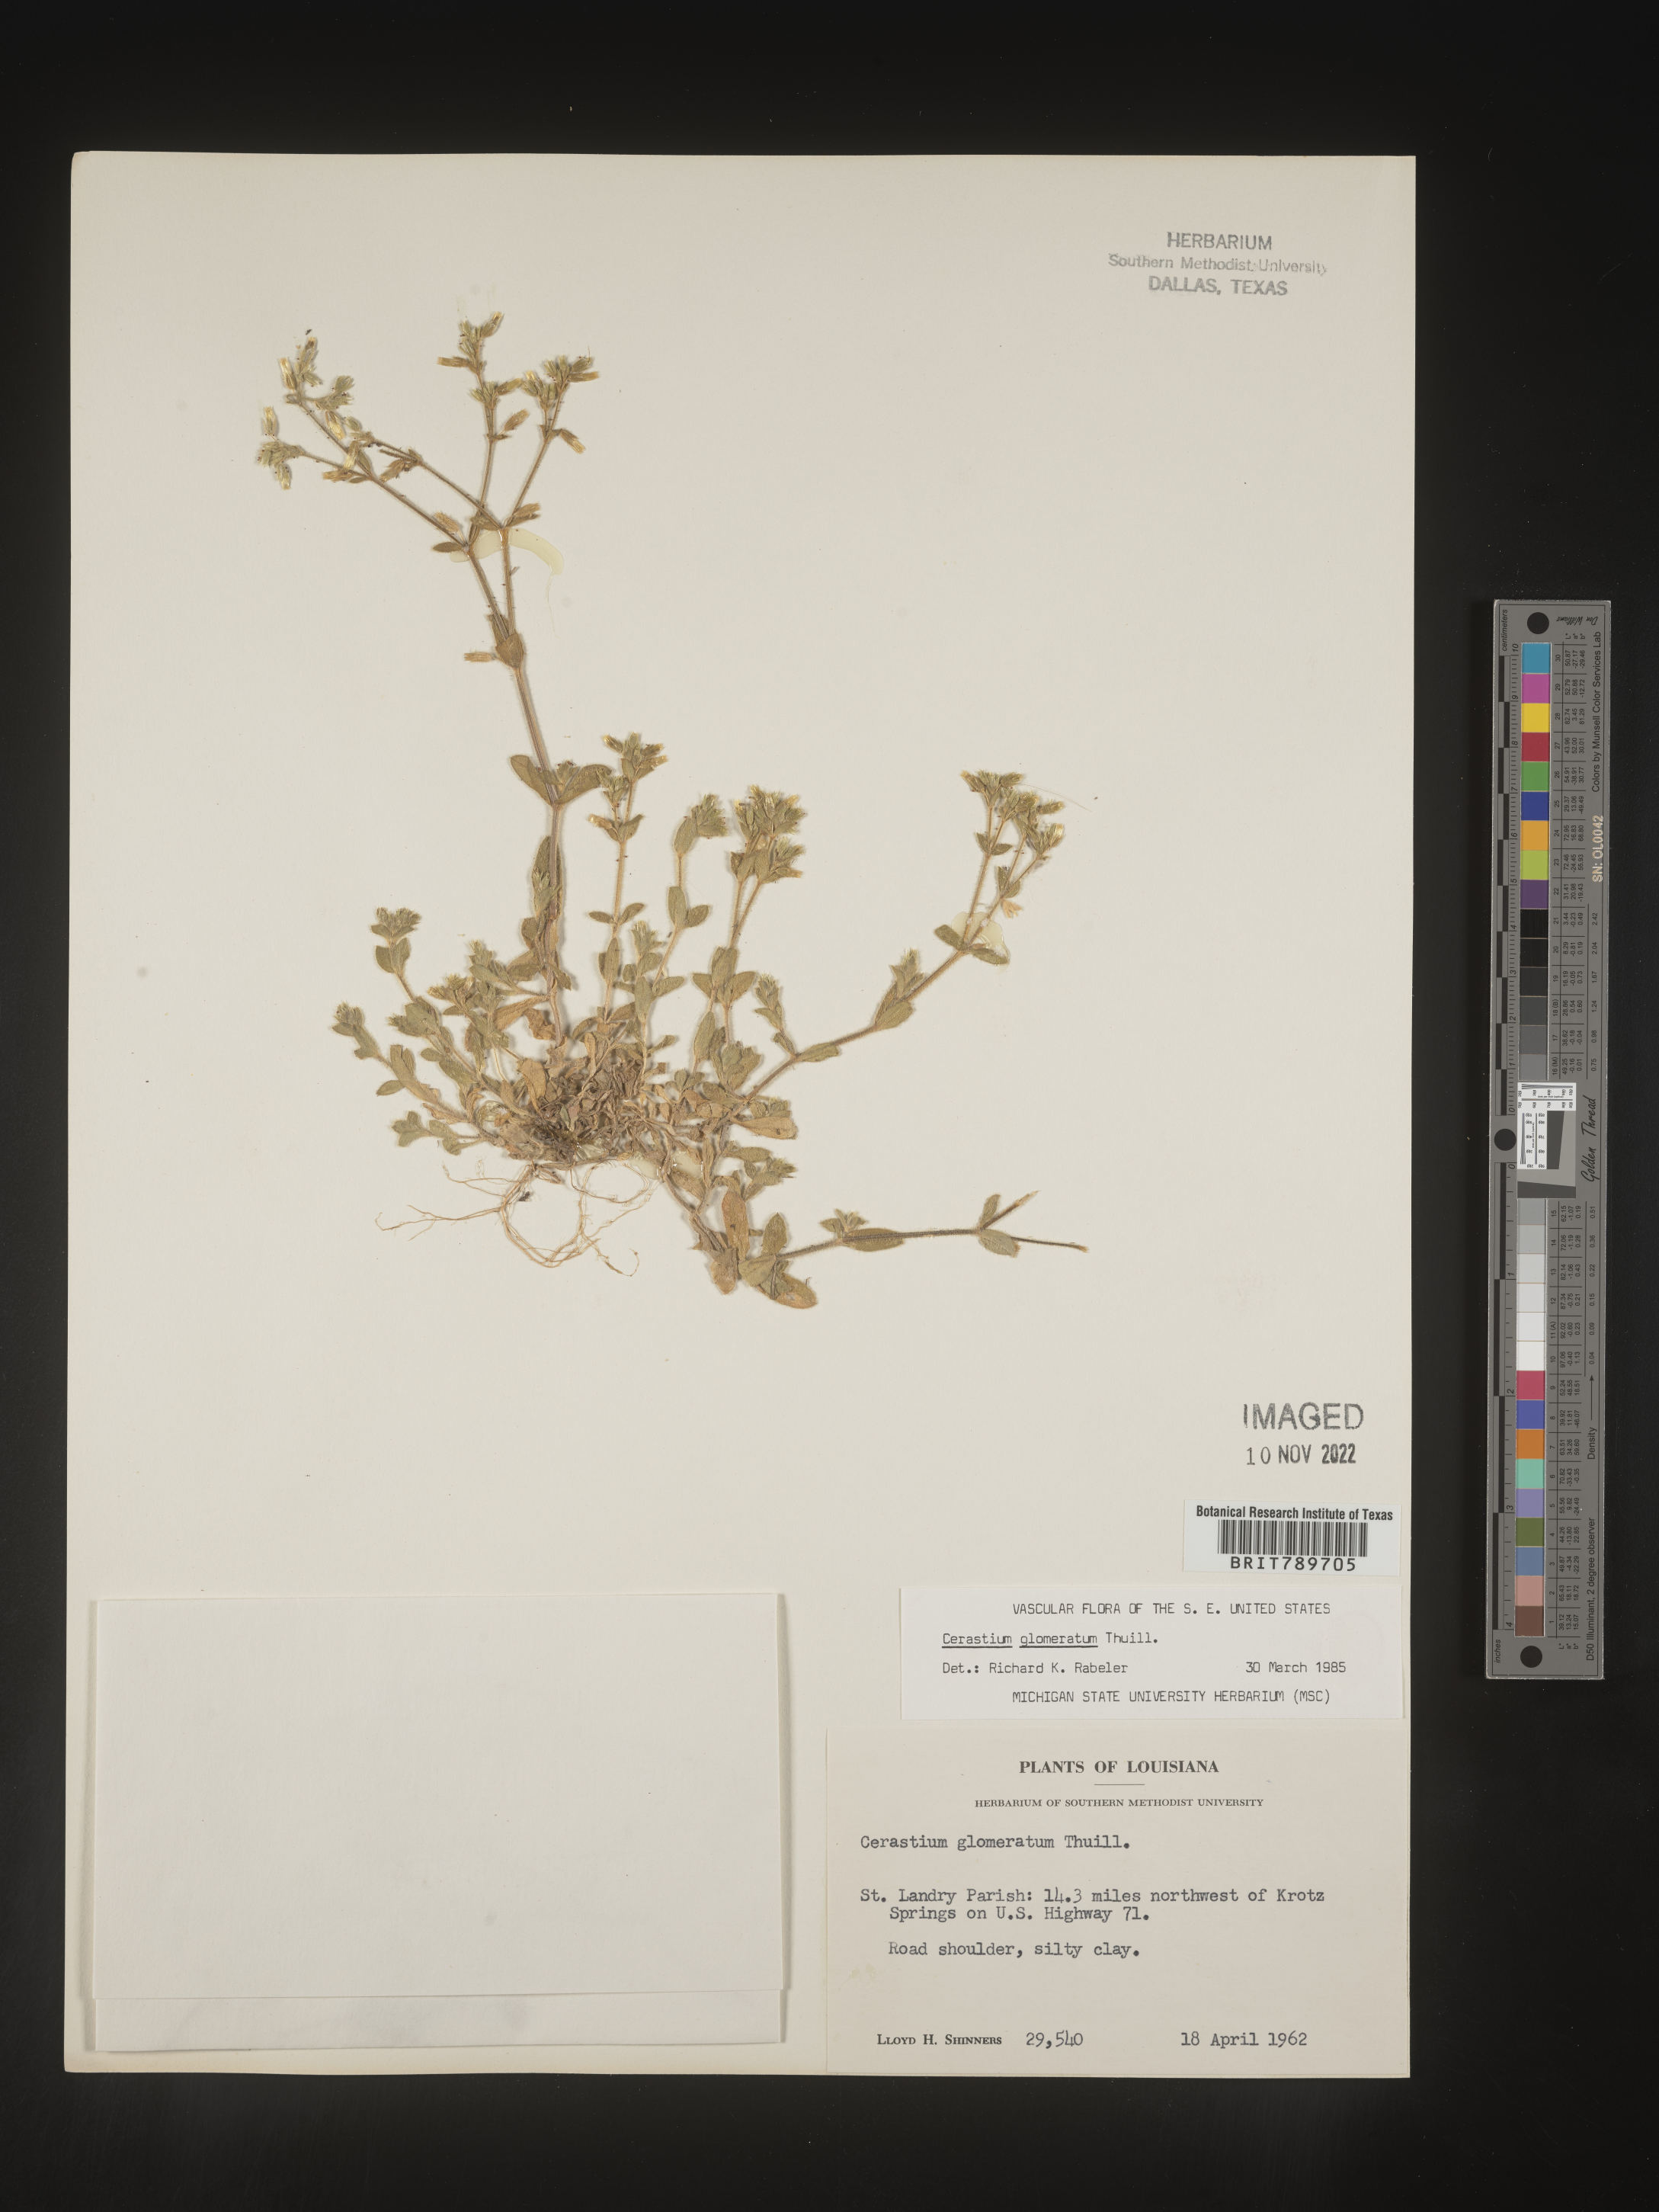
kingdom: Plantae
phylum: Tracheophyta
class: Magnoliopsida
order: Caryophyllales
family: Caryophyllaceae
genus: Cerastium
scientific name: Cerastium glomeratum
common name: Sticky chickweed
